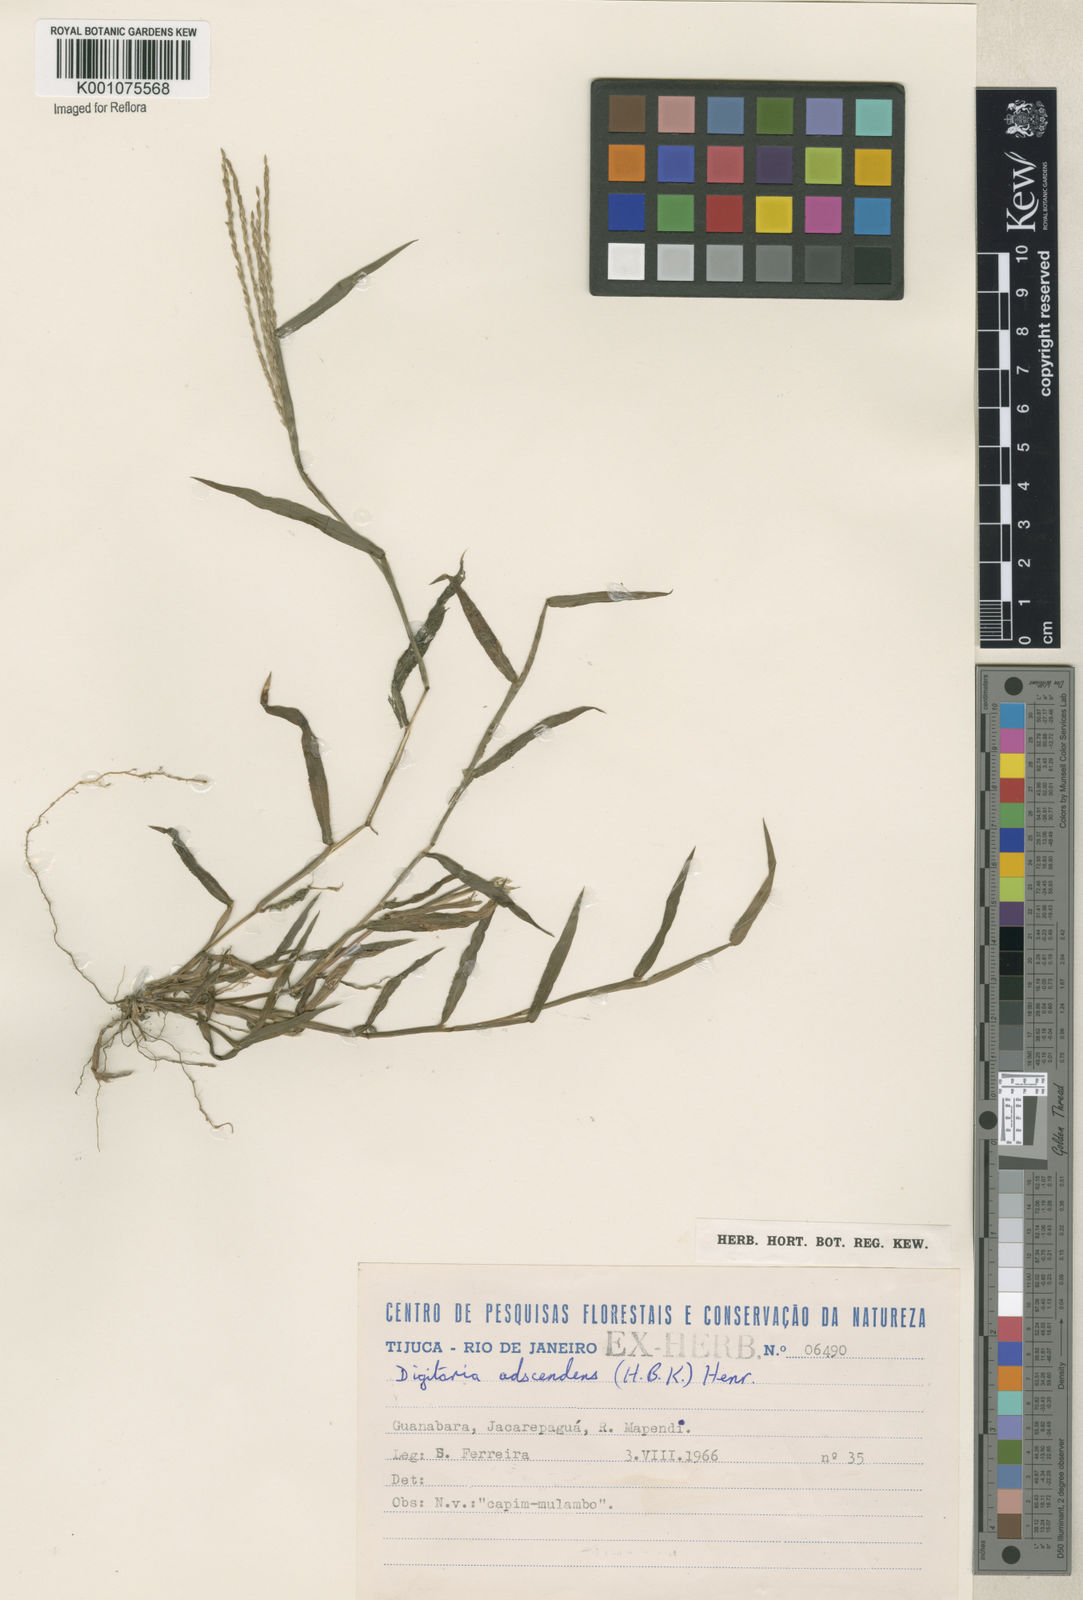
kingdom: Plantae
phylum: Tracheophyta
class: Liliopsida
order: Poales
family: Poaceae
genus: Digitaria
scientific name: Digitaria ciliaris
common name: Tropical finger-grass
